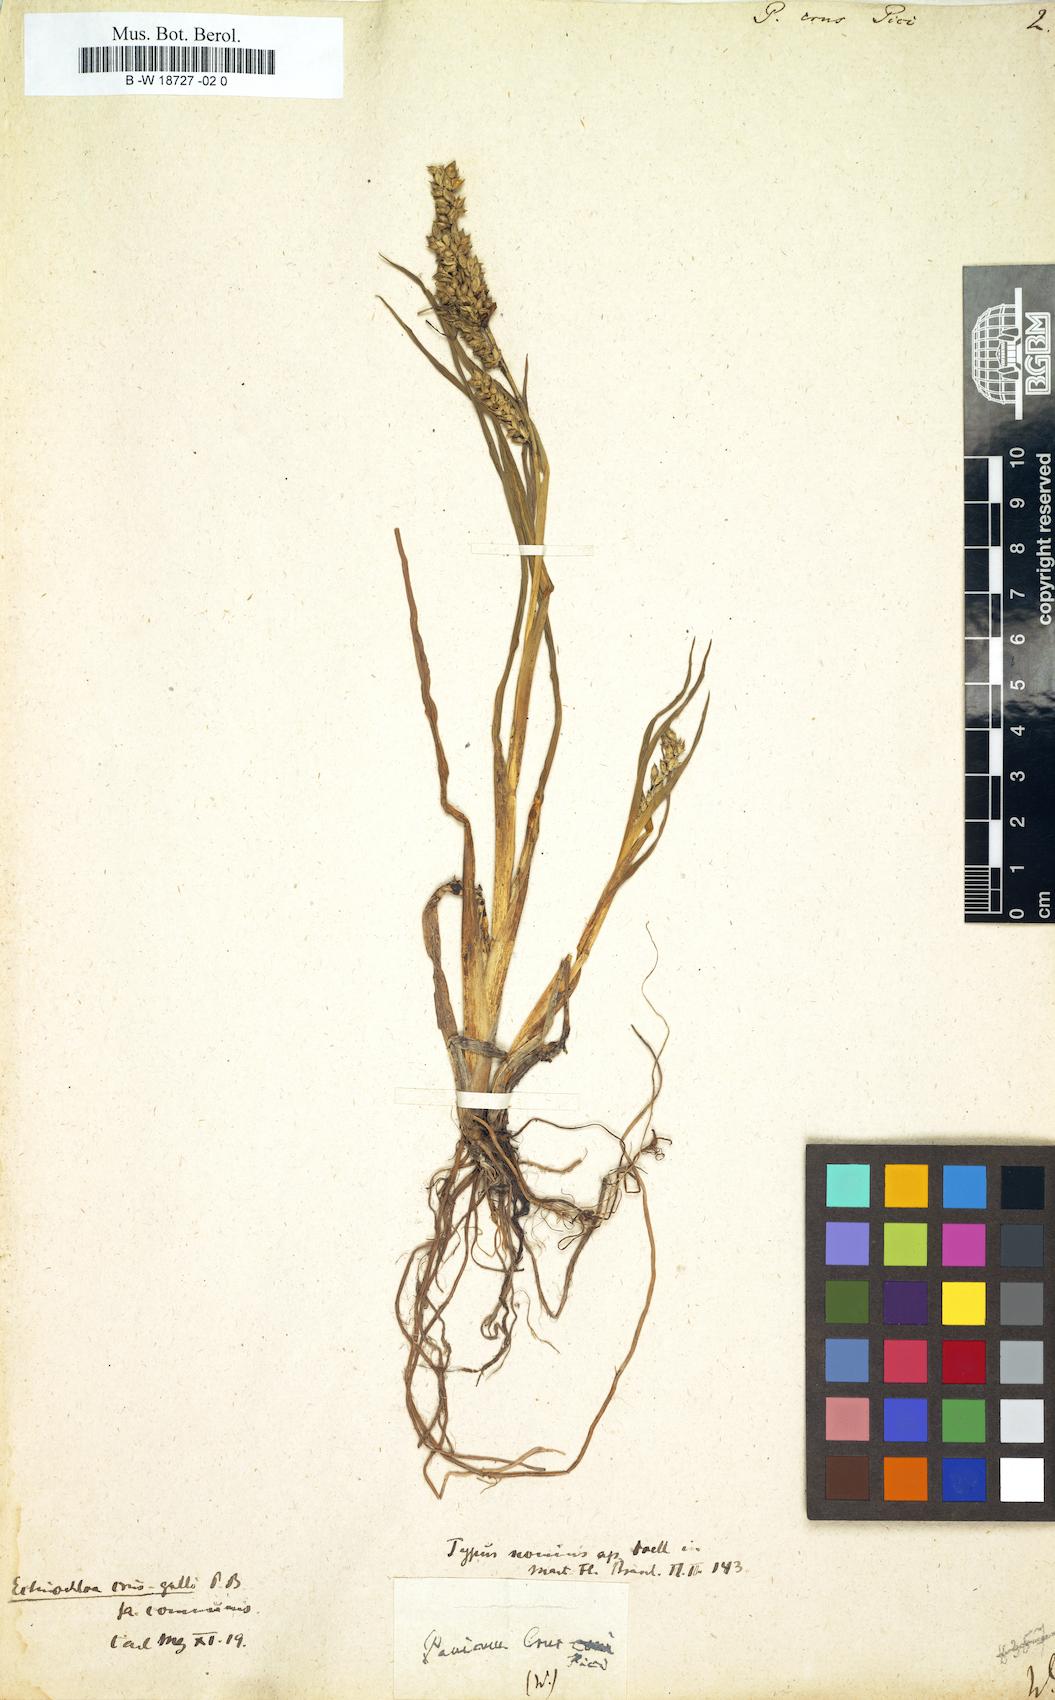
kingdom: Plantae
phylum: Tracheophyta
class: Liliopsida
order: Poales
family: Poaceae
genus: Echinochloa
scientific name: Echinochloa crus-galli
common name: Cockspur
